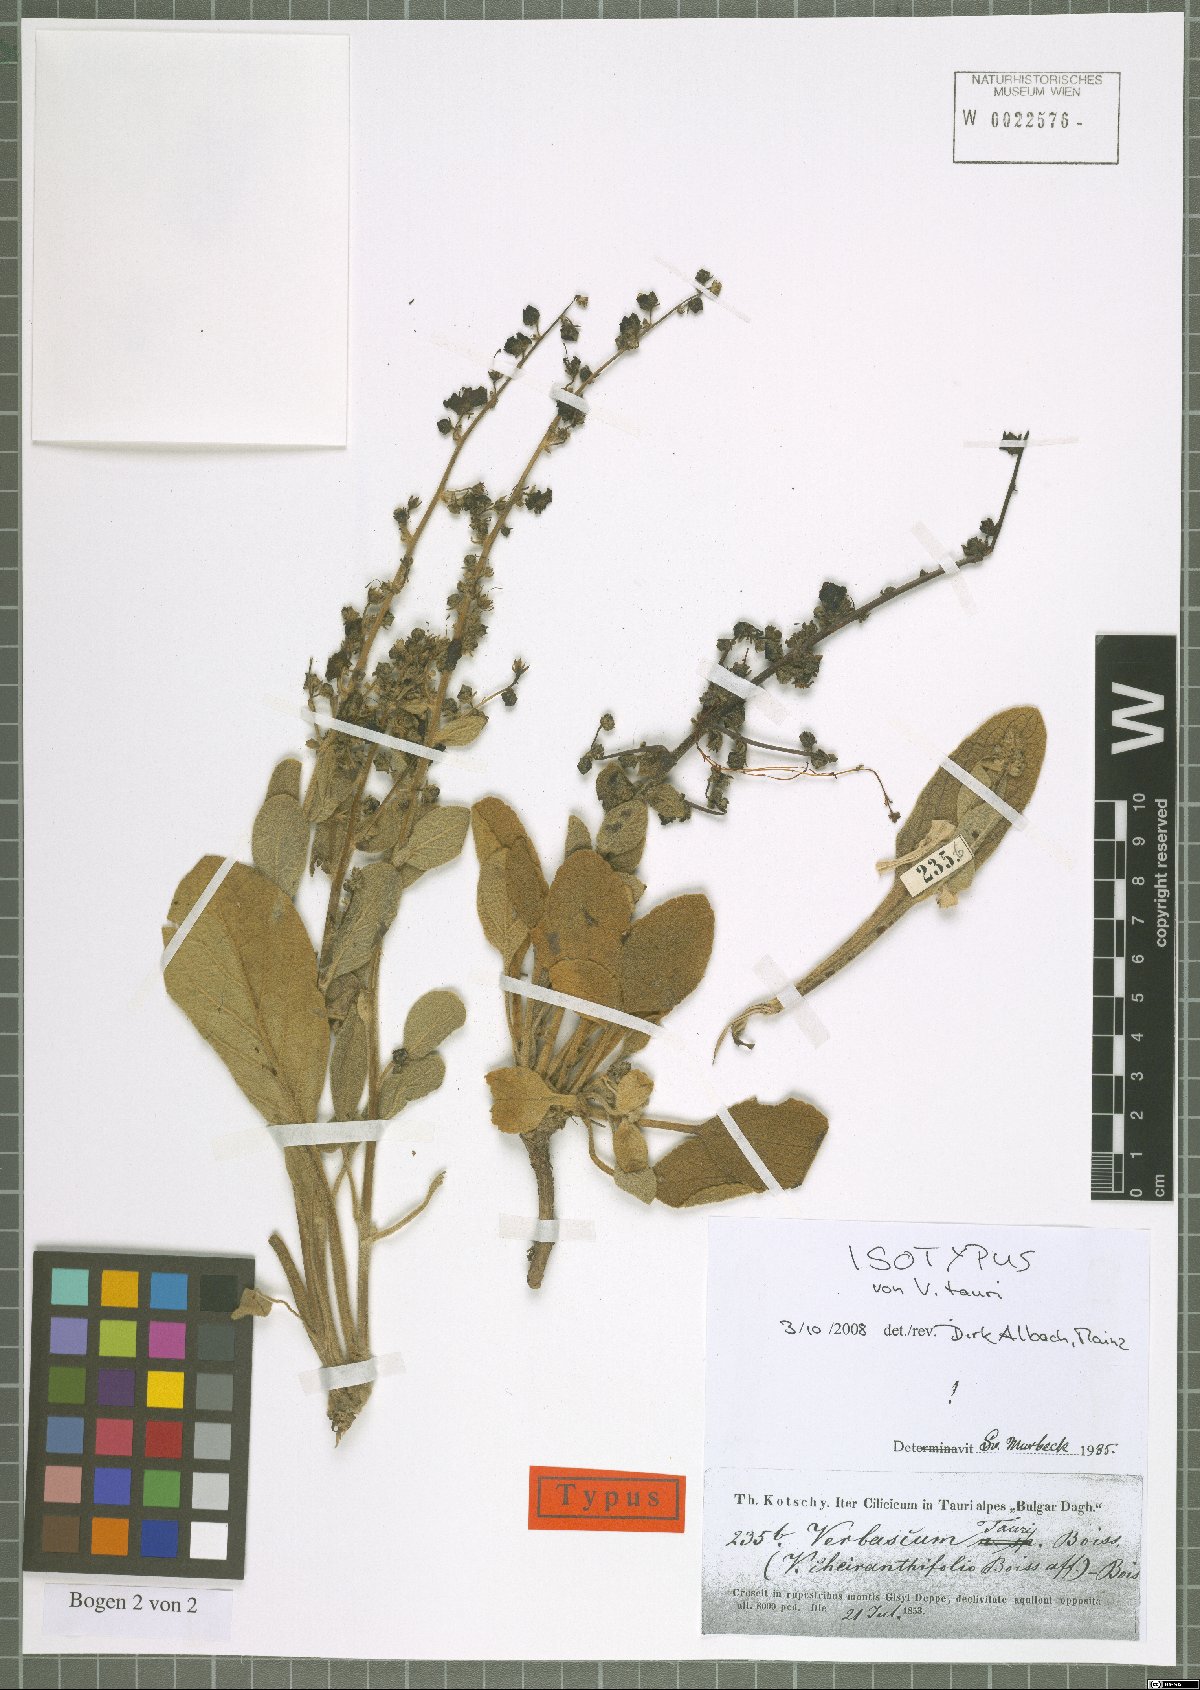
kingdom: Plantae
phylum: Tracheophyta
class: Magnoliopsida
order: Lamiales
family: Scrophulariaceae
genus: Verbascum
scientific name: Verbascum tauri
